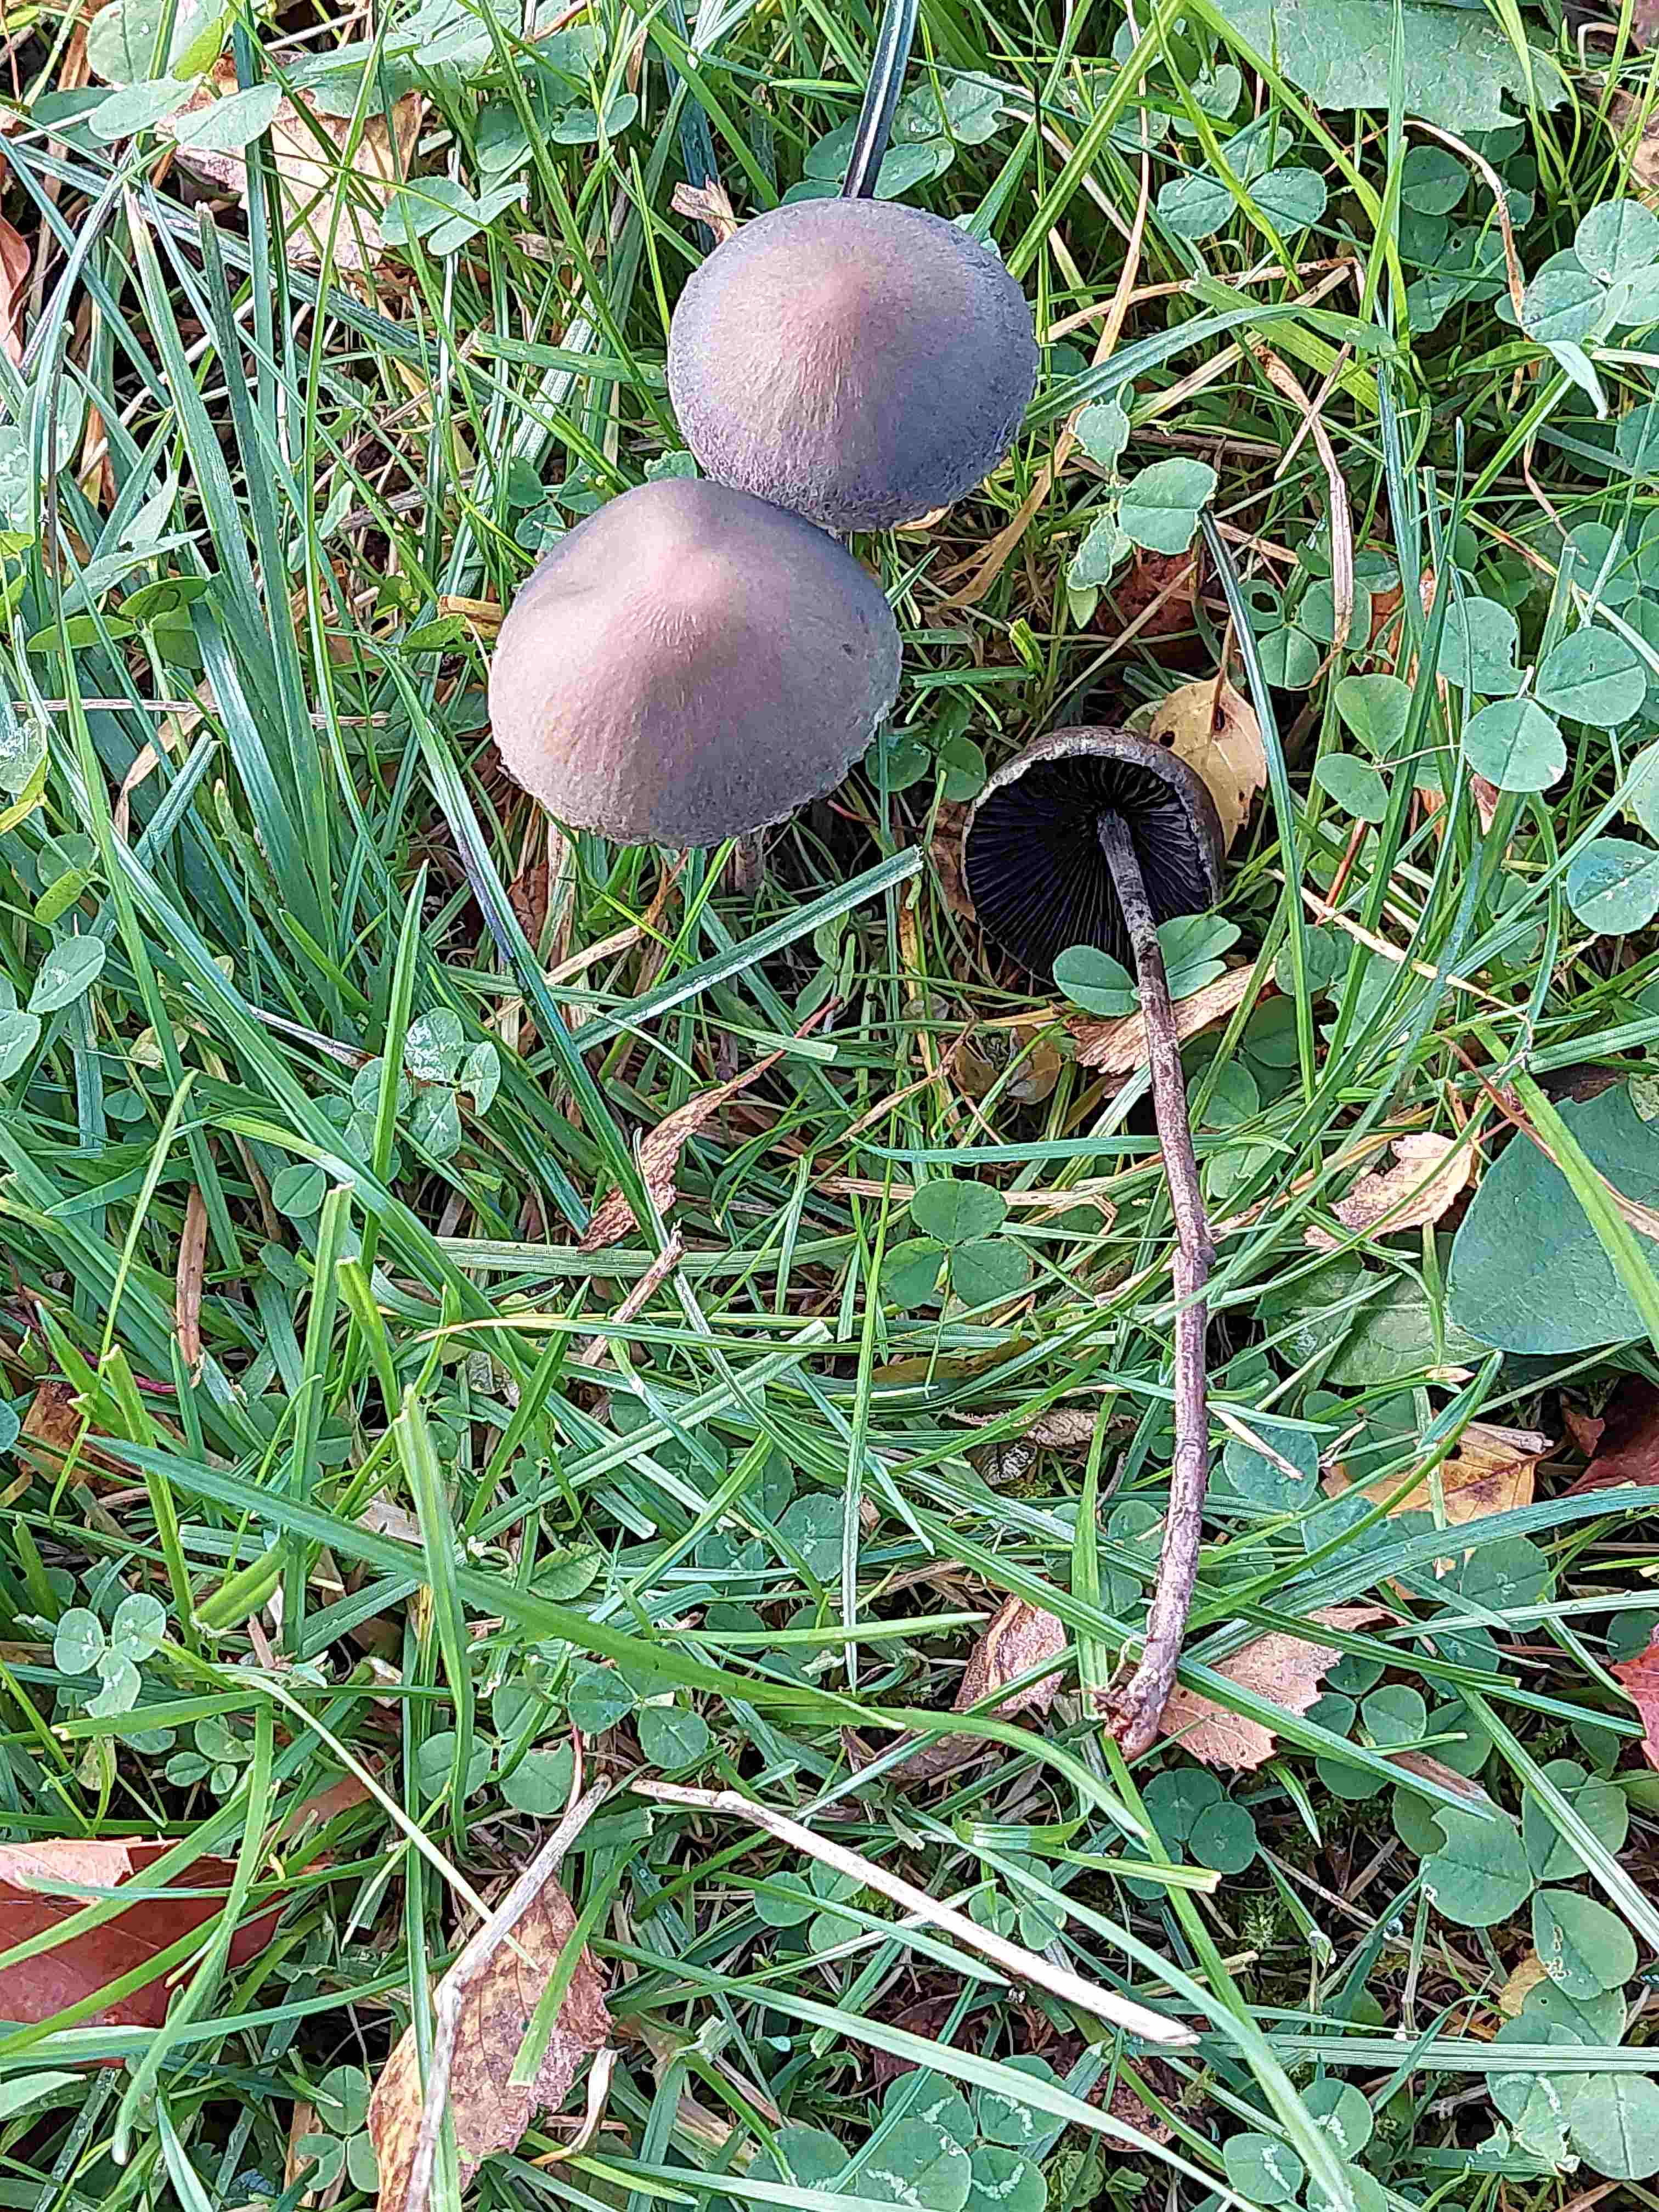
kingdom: Fungi
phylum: Basidiomycota
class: Agaricomycetes
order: Agaricales
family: Bolbitiaceae
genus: Panaeolus
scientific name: Panaeolus papilionaceus
